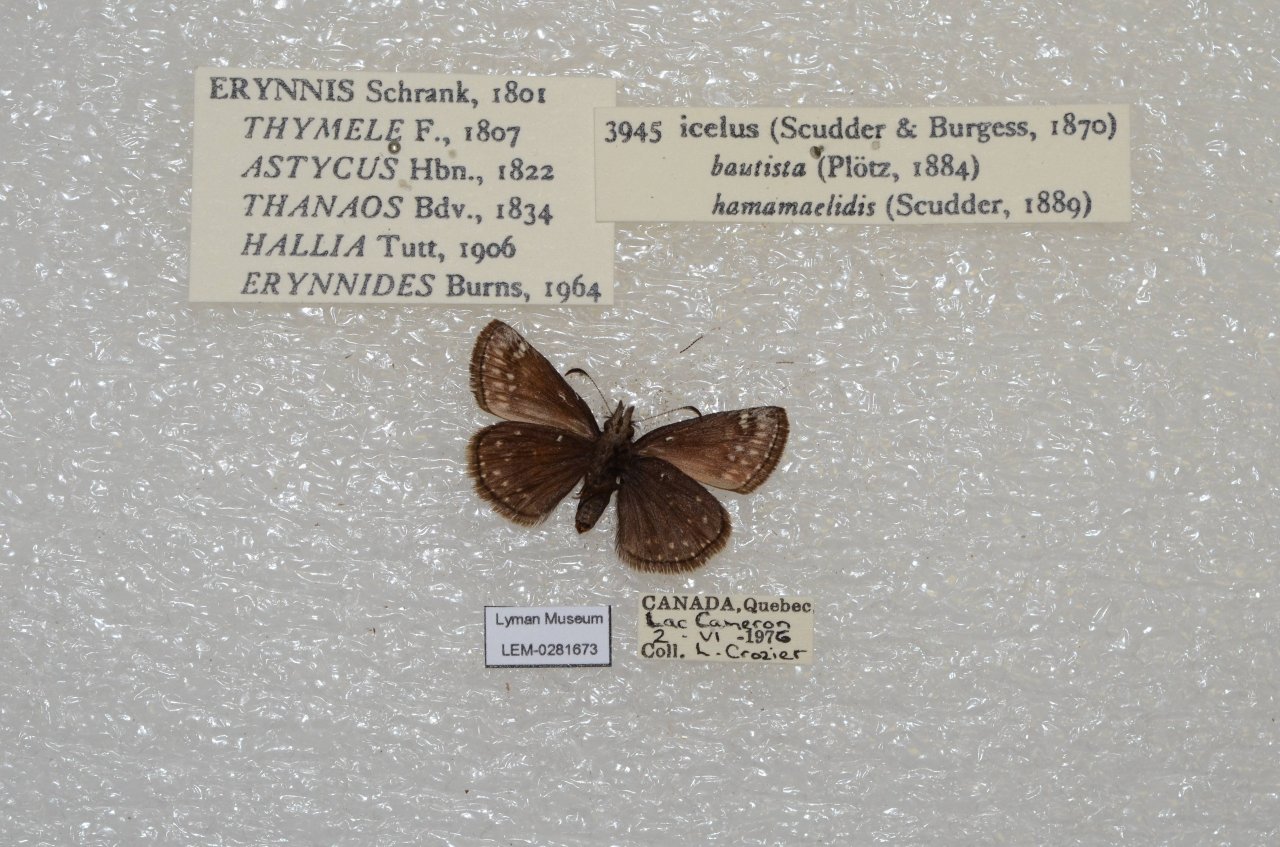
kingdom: Animalia
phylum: Arthropoda
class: Insecta
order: Lepidoptera
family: Hesperiidae
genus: Erynnis
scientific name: Erynnis icelus
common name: Dreamy Duskywing
